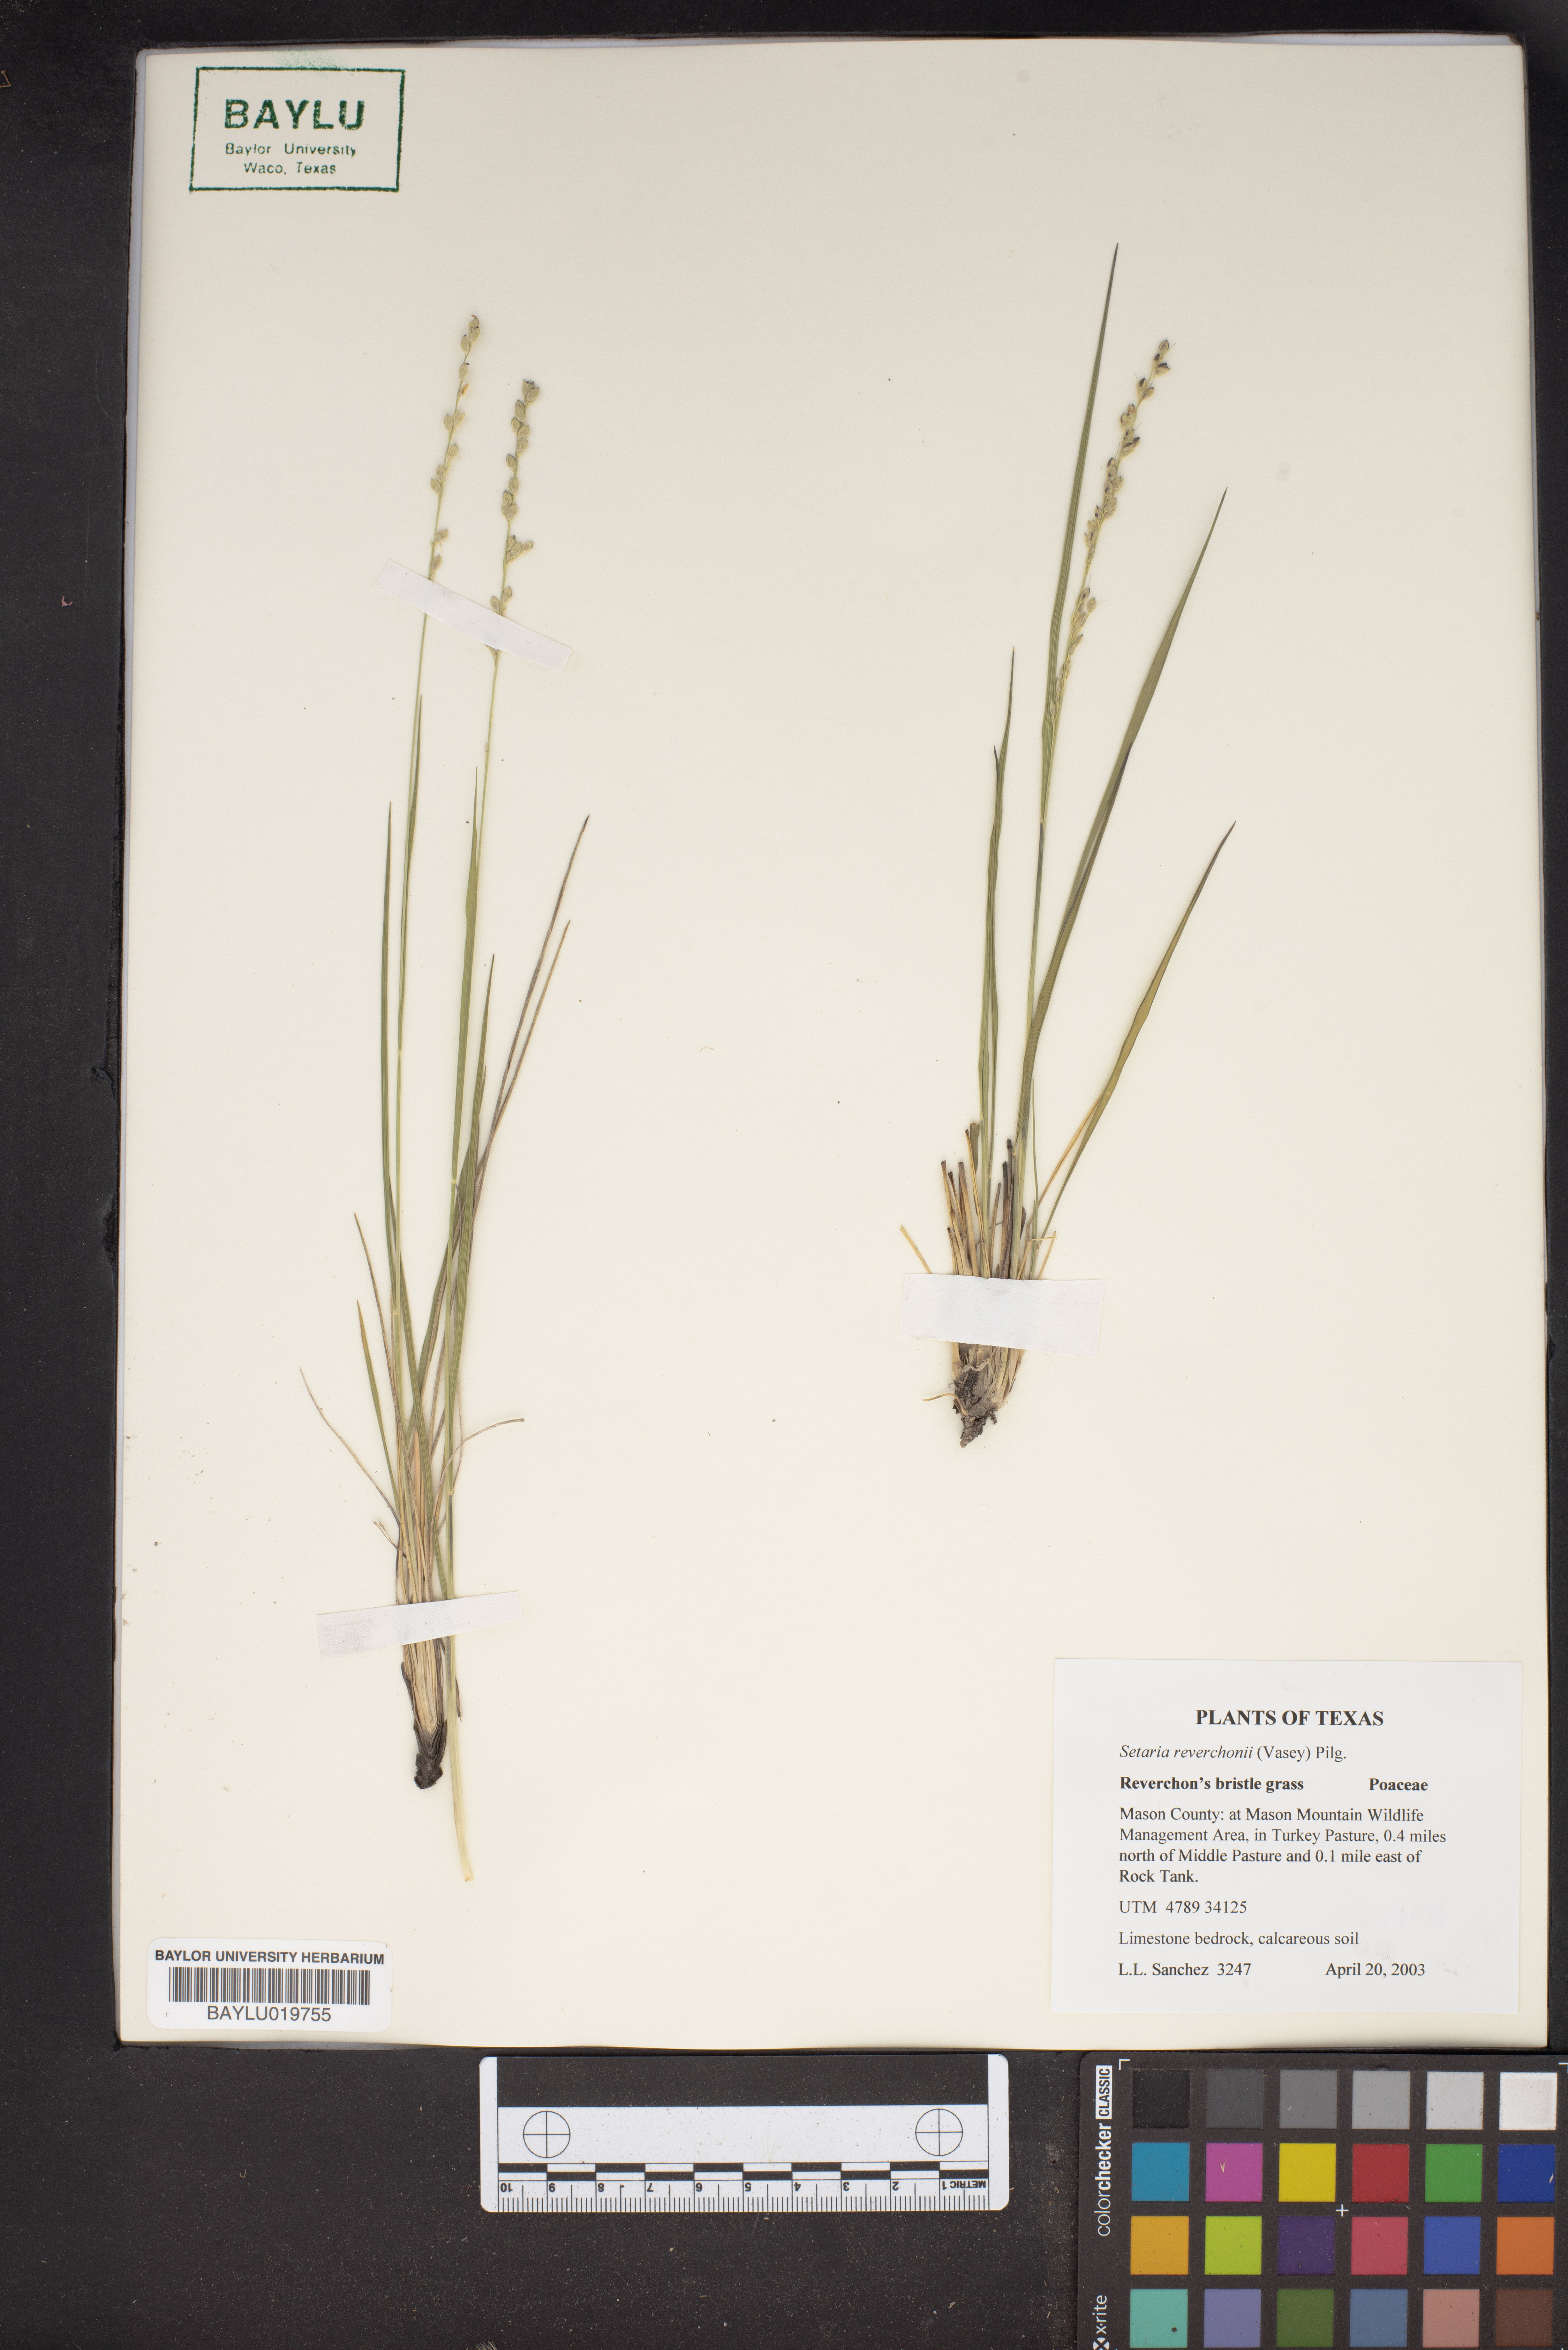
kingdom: Plantae
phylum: Tracheophyta
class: Liliopsida
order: Poales
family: Poaceae
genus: Setaria
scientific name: Setaria reverchonii
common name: Reverchon's bristle grass
